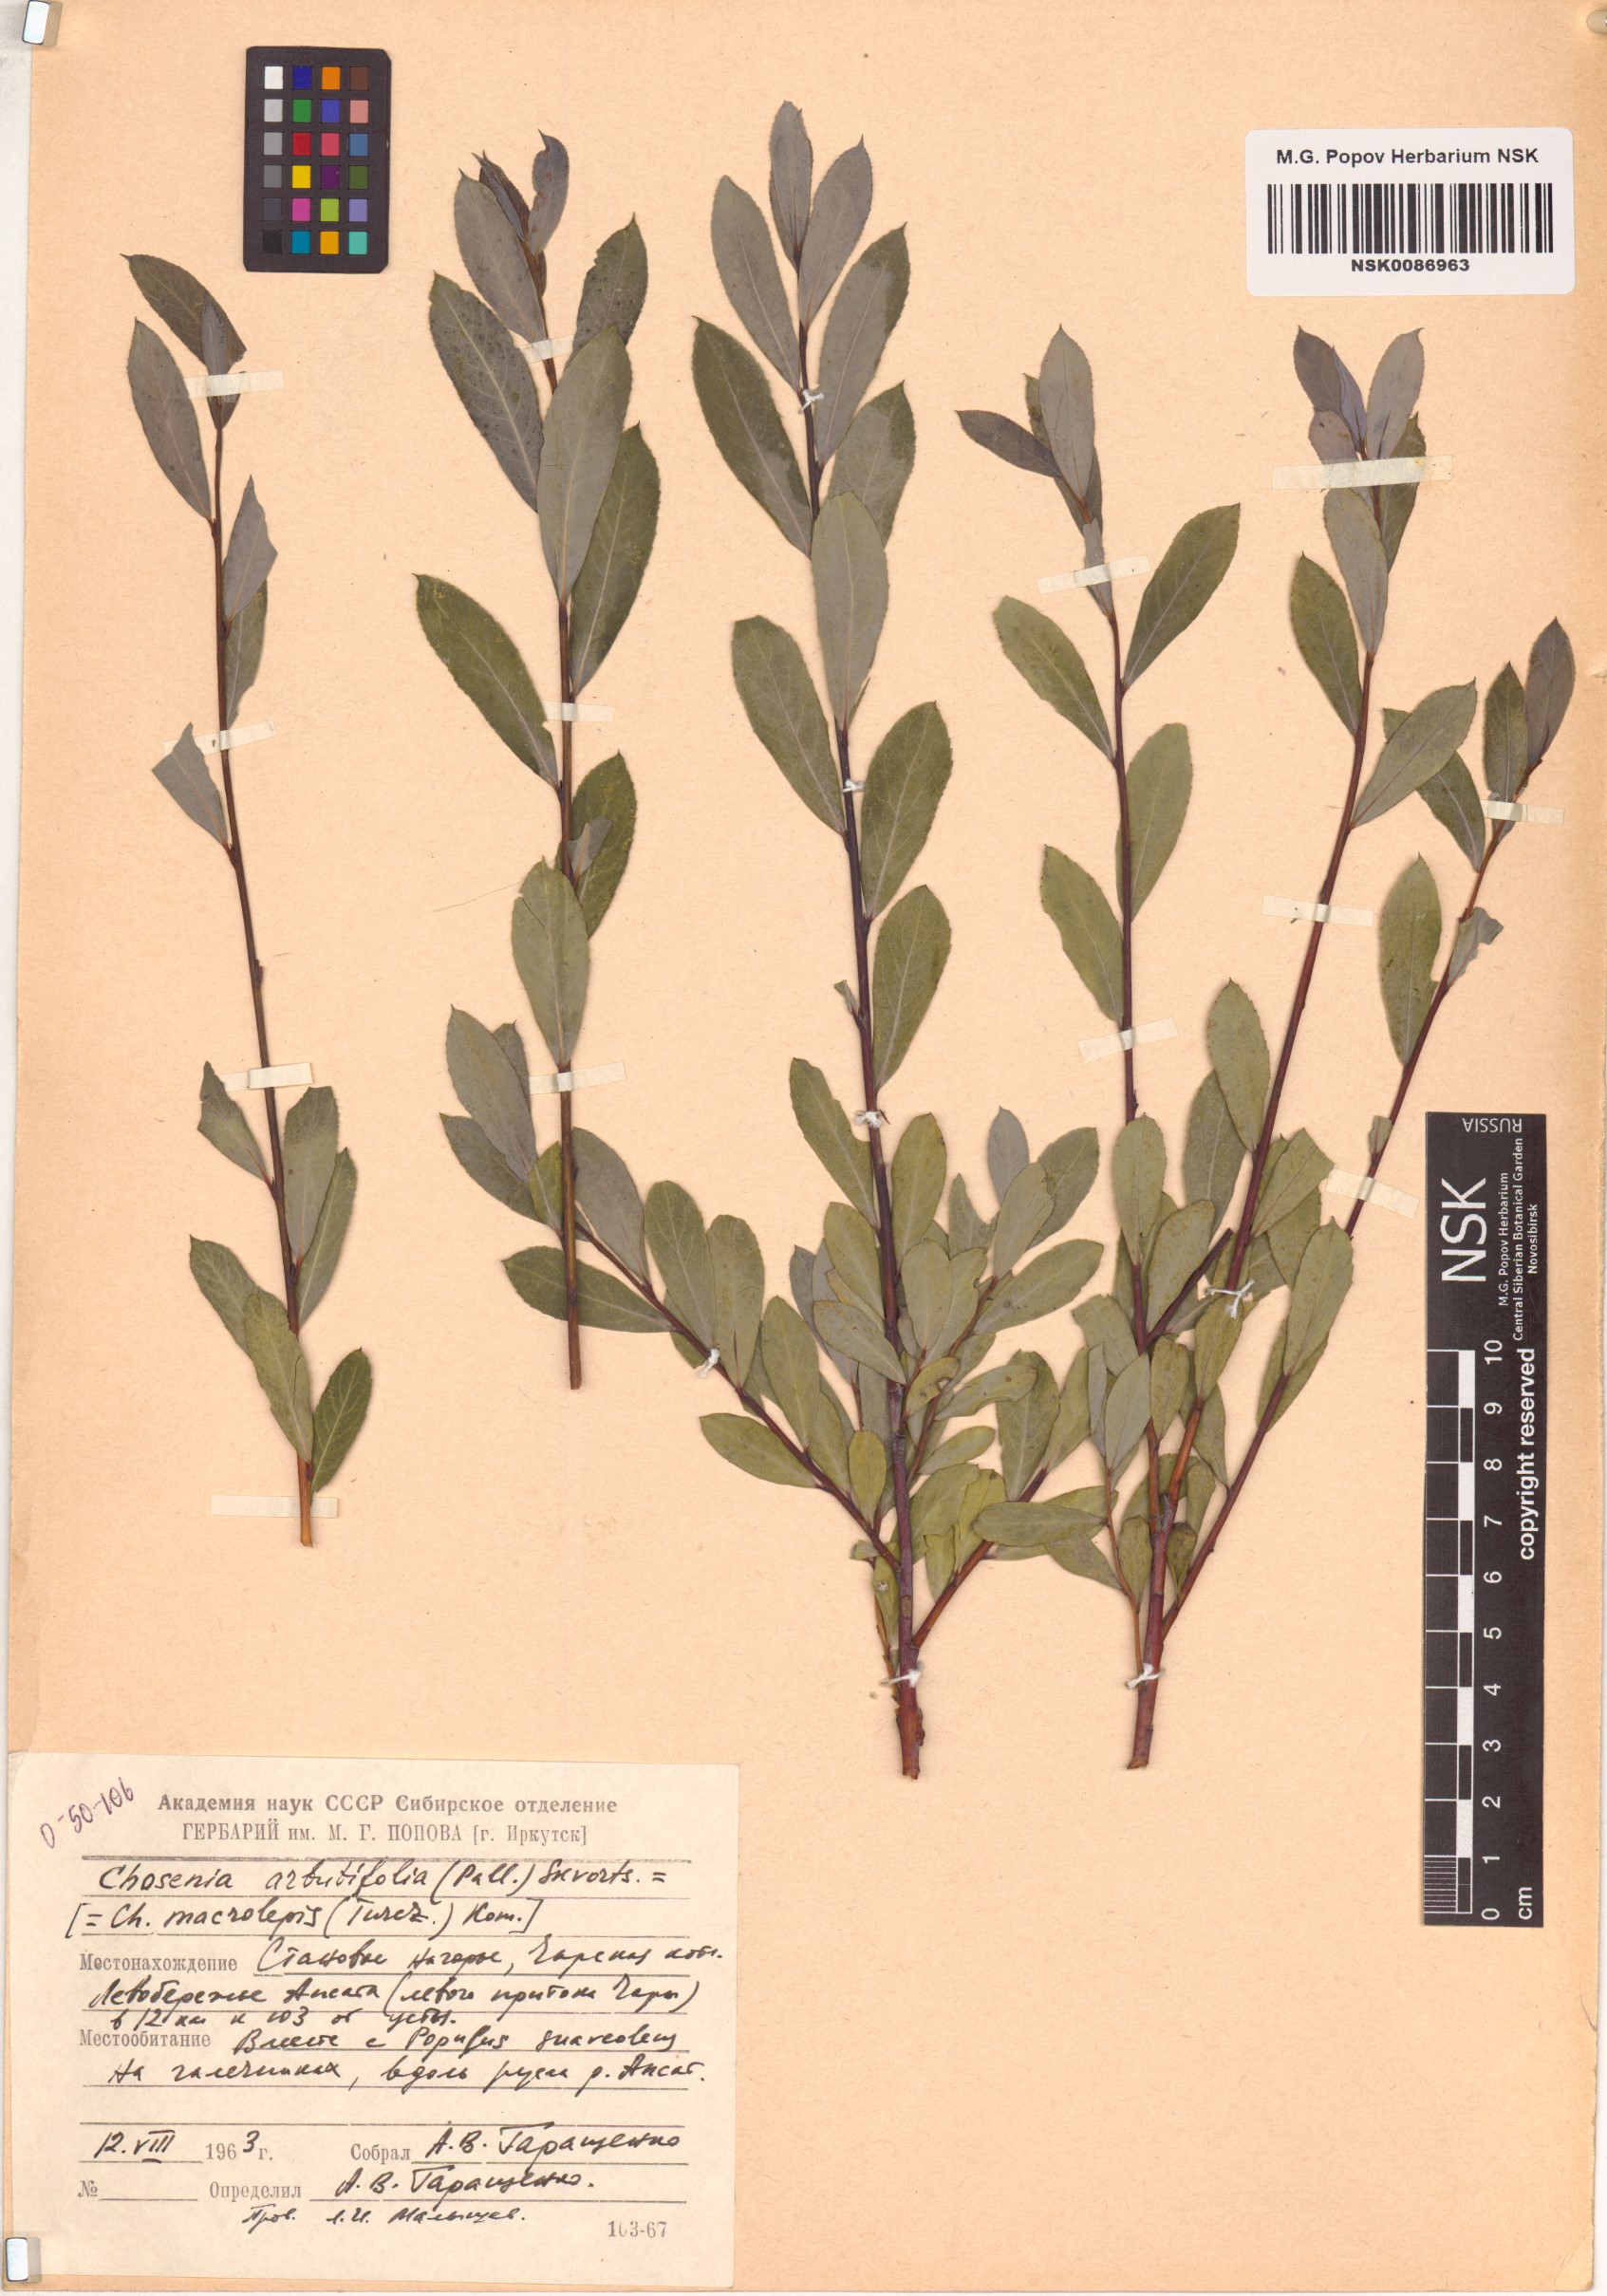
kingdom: Plantae
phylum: Tracheophyta
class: Magnoliopsida
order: Malpighiales
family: Salicaceae
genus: Chosenia
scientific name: Chosenia arbutifolia
